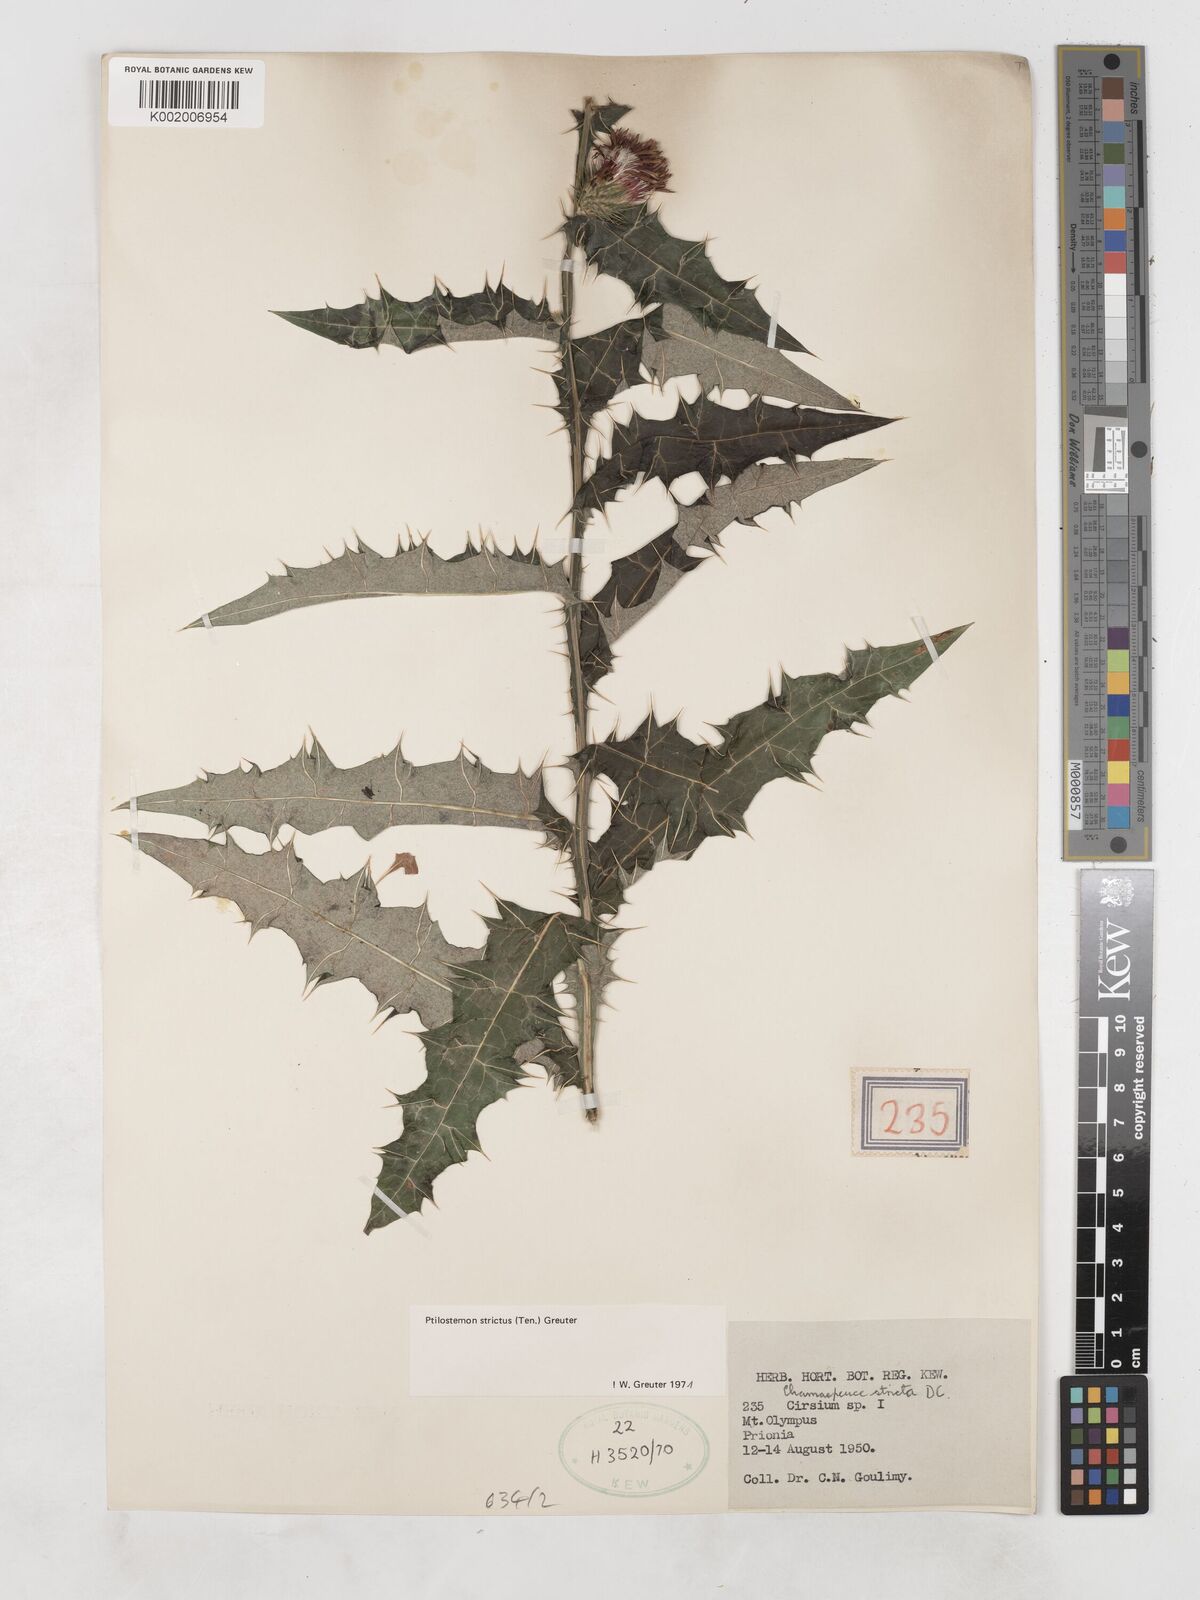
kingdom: Plantae
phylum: Tracheophyta
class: Magnoliopsida
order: Asterales
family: Asteraceae
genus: Ptilostemon
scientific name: Ptilostemon strictus
